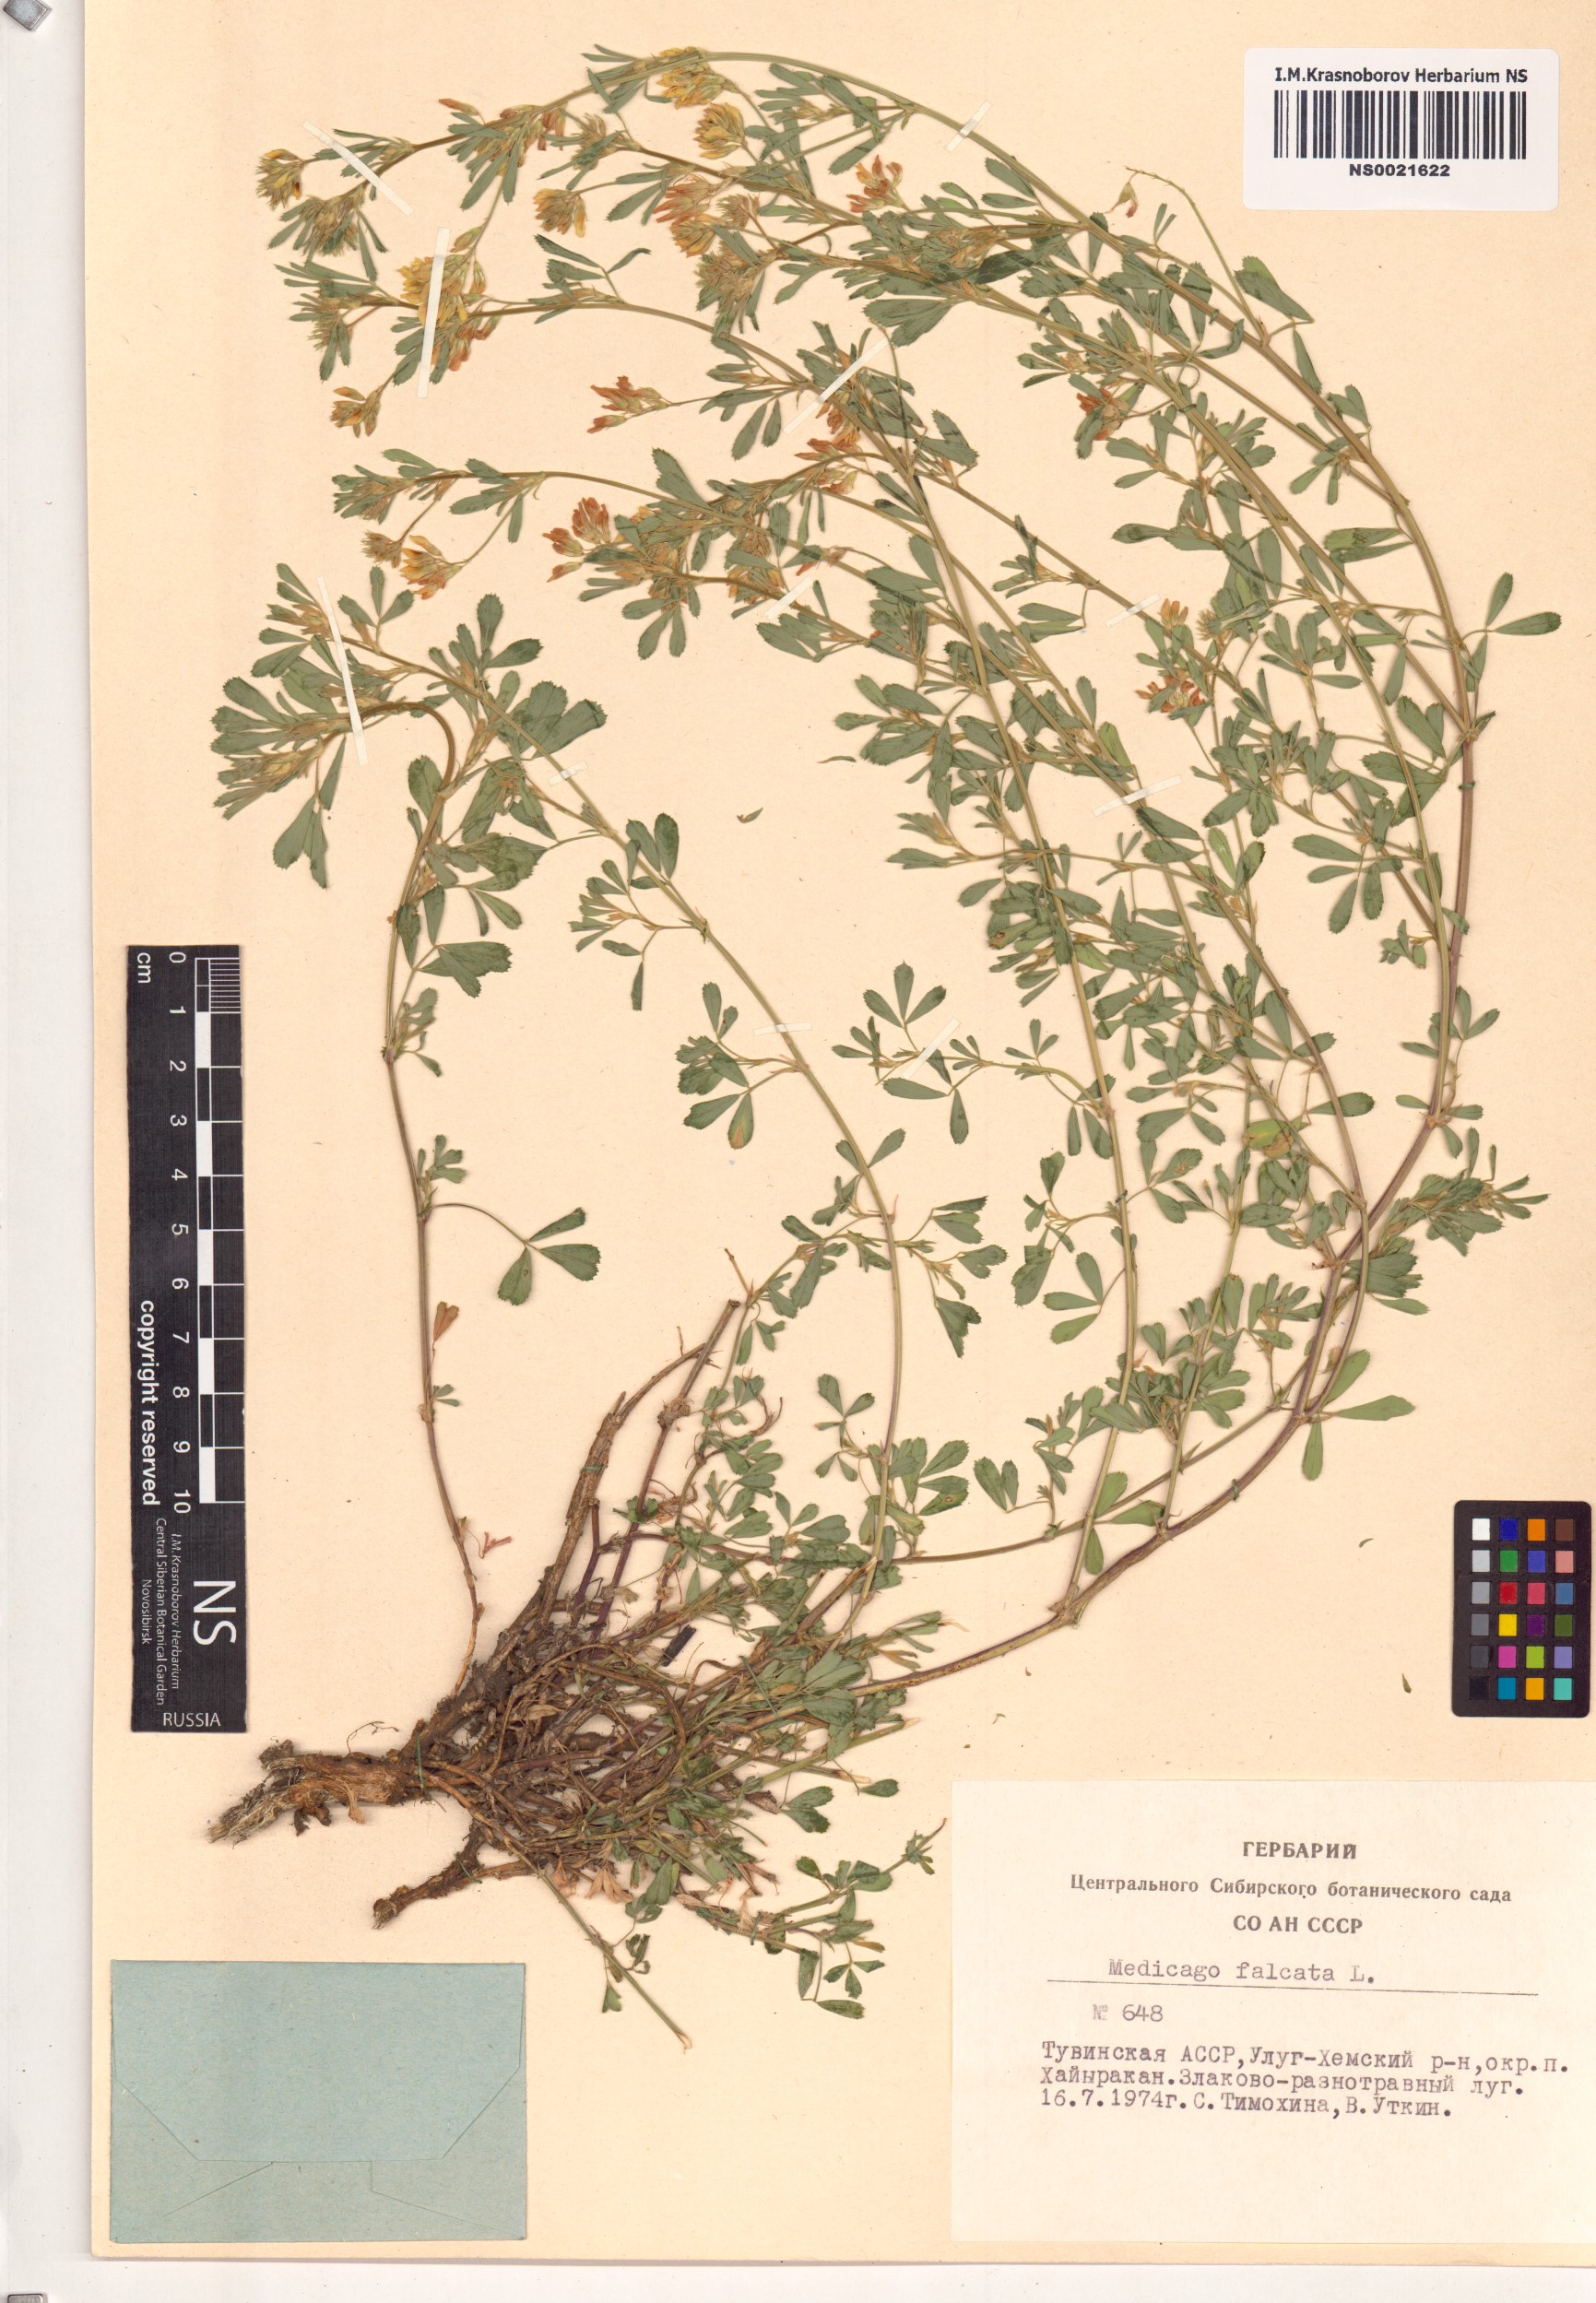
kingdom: Plantae
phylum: Tracheophyta
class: Magnoliopsida
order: Fabales
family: Fabaceae
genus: Medicago
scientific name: Medicago falcata
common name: Sickle medick
